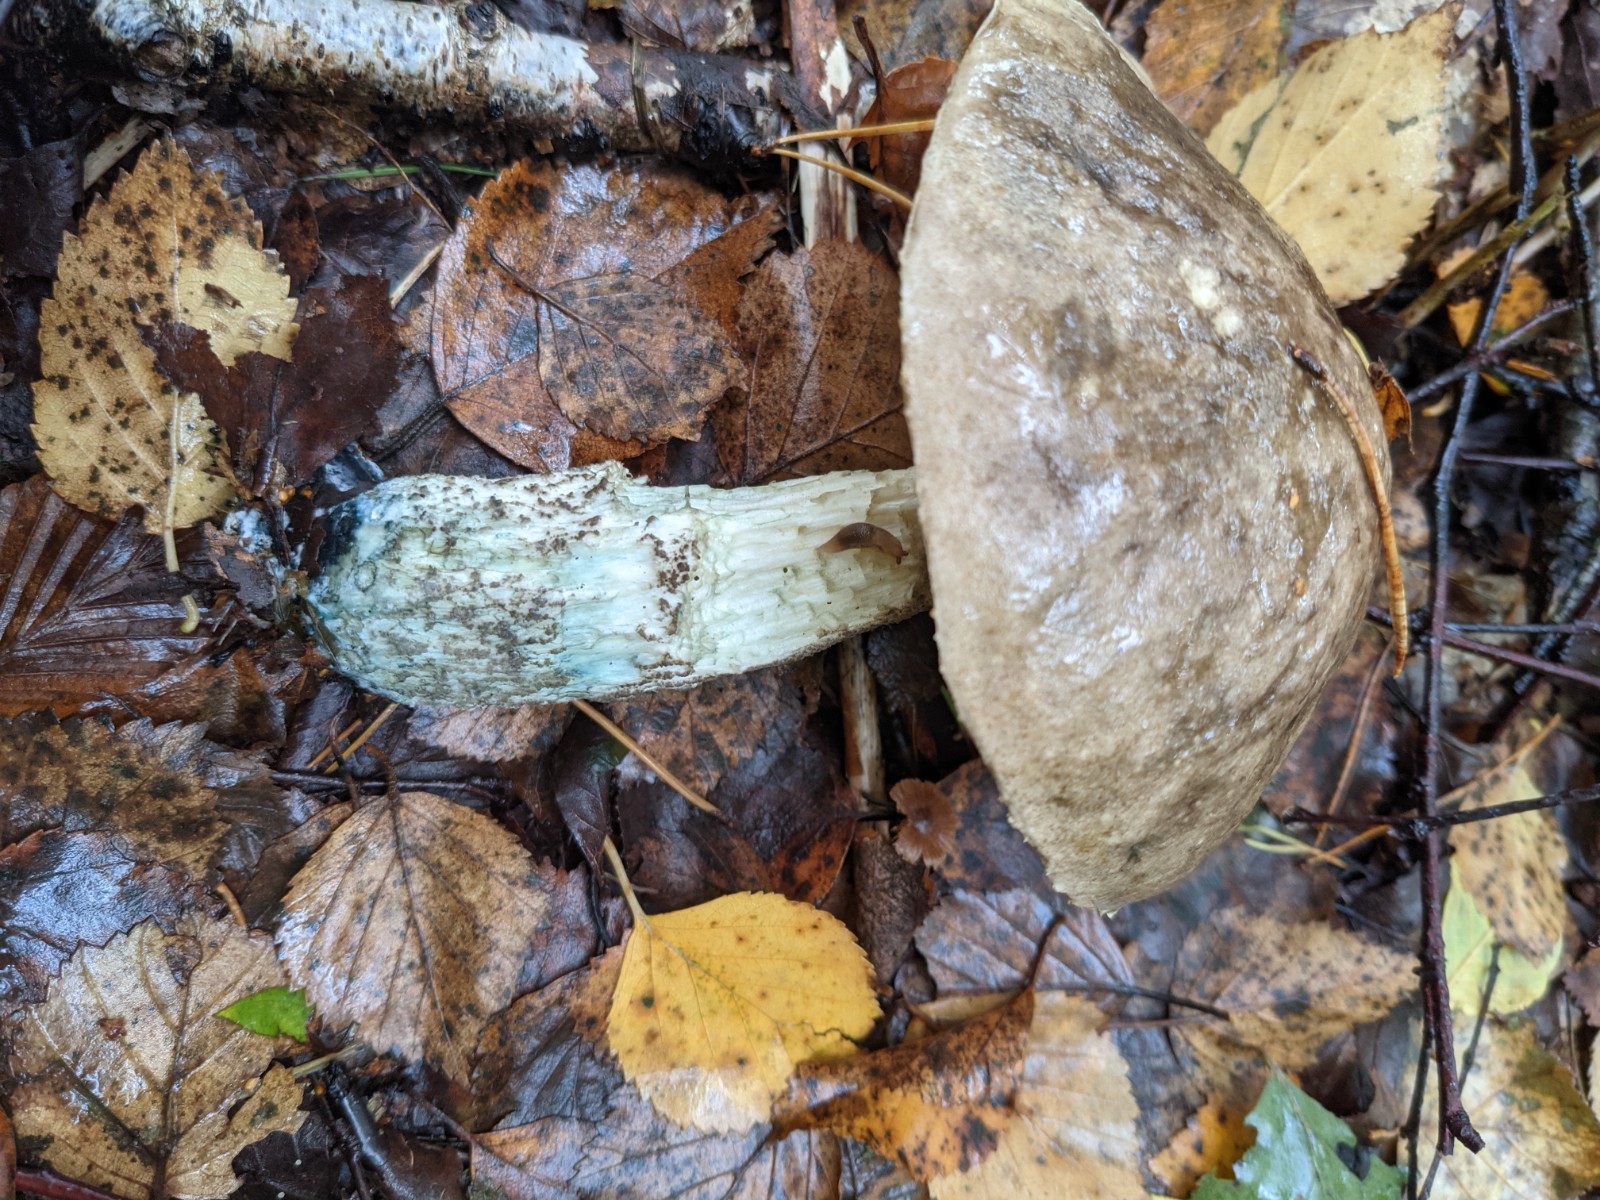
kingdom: Fungi
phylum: Basidiomycota
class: Agaricomycetes
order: Boletales
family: Boletaceae
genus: Leccinum
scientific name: Leccinum variicolor
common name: flammet skælrørhat
